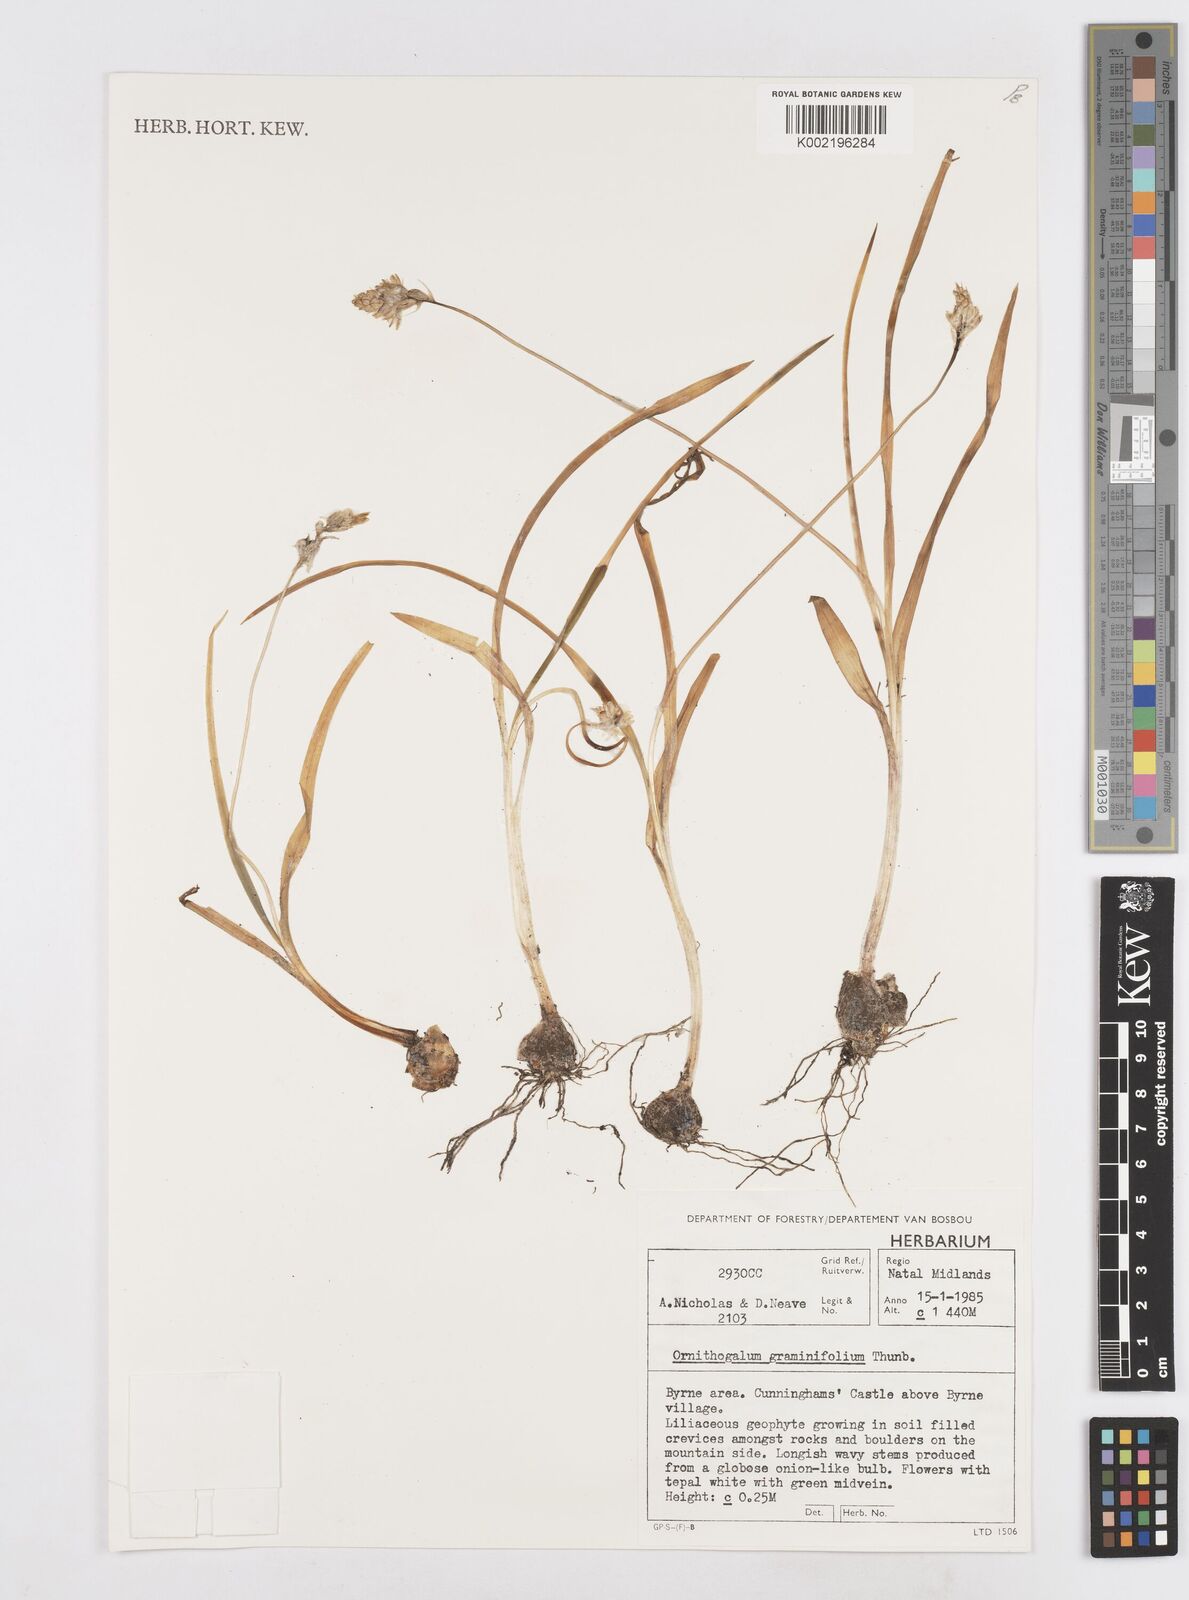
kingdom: Plantae
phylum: Tracheophyta
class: Liliopsida
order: Asparagales
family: Asparagaceae
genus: Ornithogalum
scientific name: Ornithogalum graminifolium
